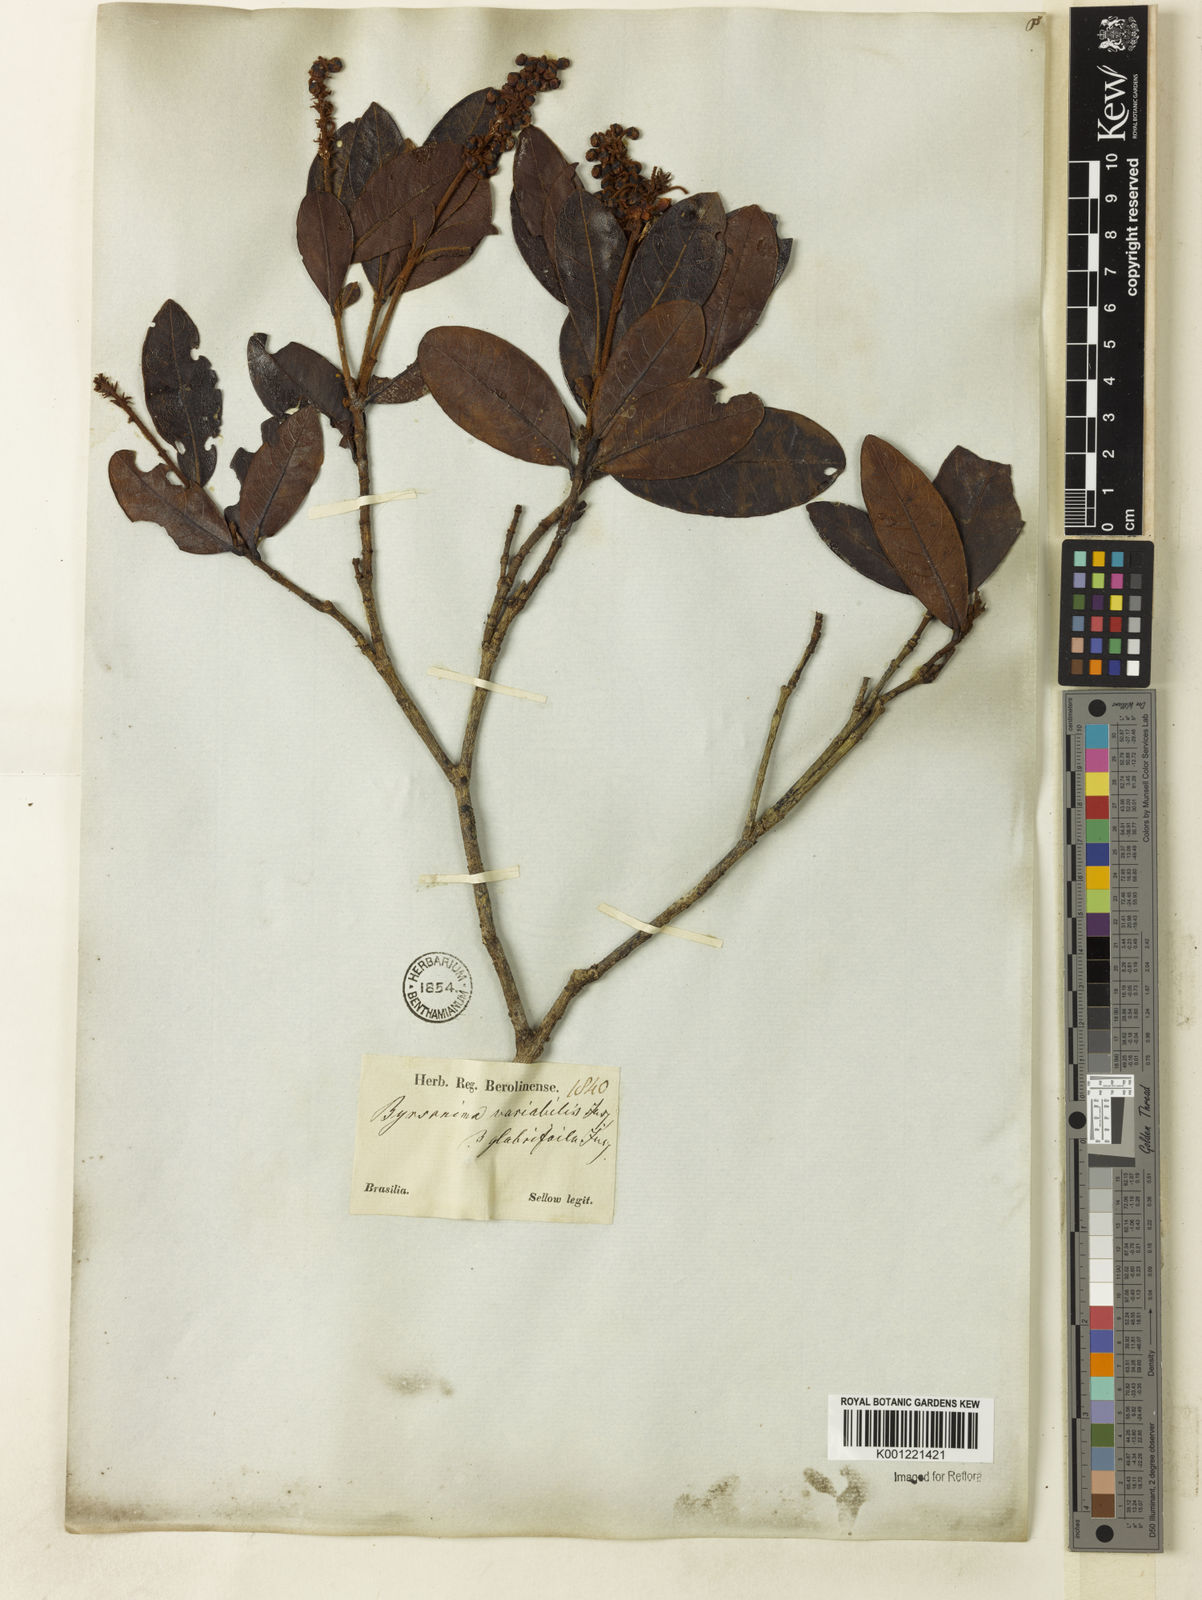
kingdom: Plantae
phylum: Tracheophyta
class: Magnoliopsida
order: Malpighiales
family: Malpighiaceae
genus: Byrsonima
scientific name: Byrsonima variabilis
